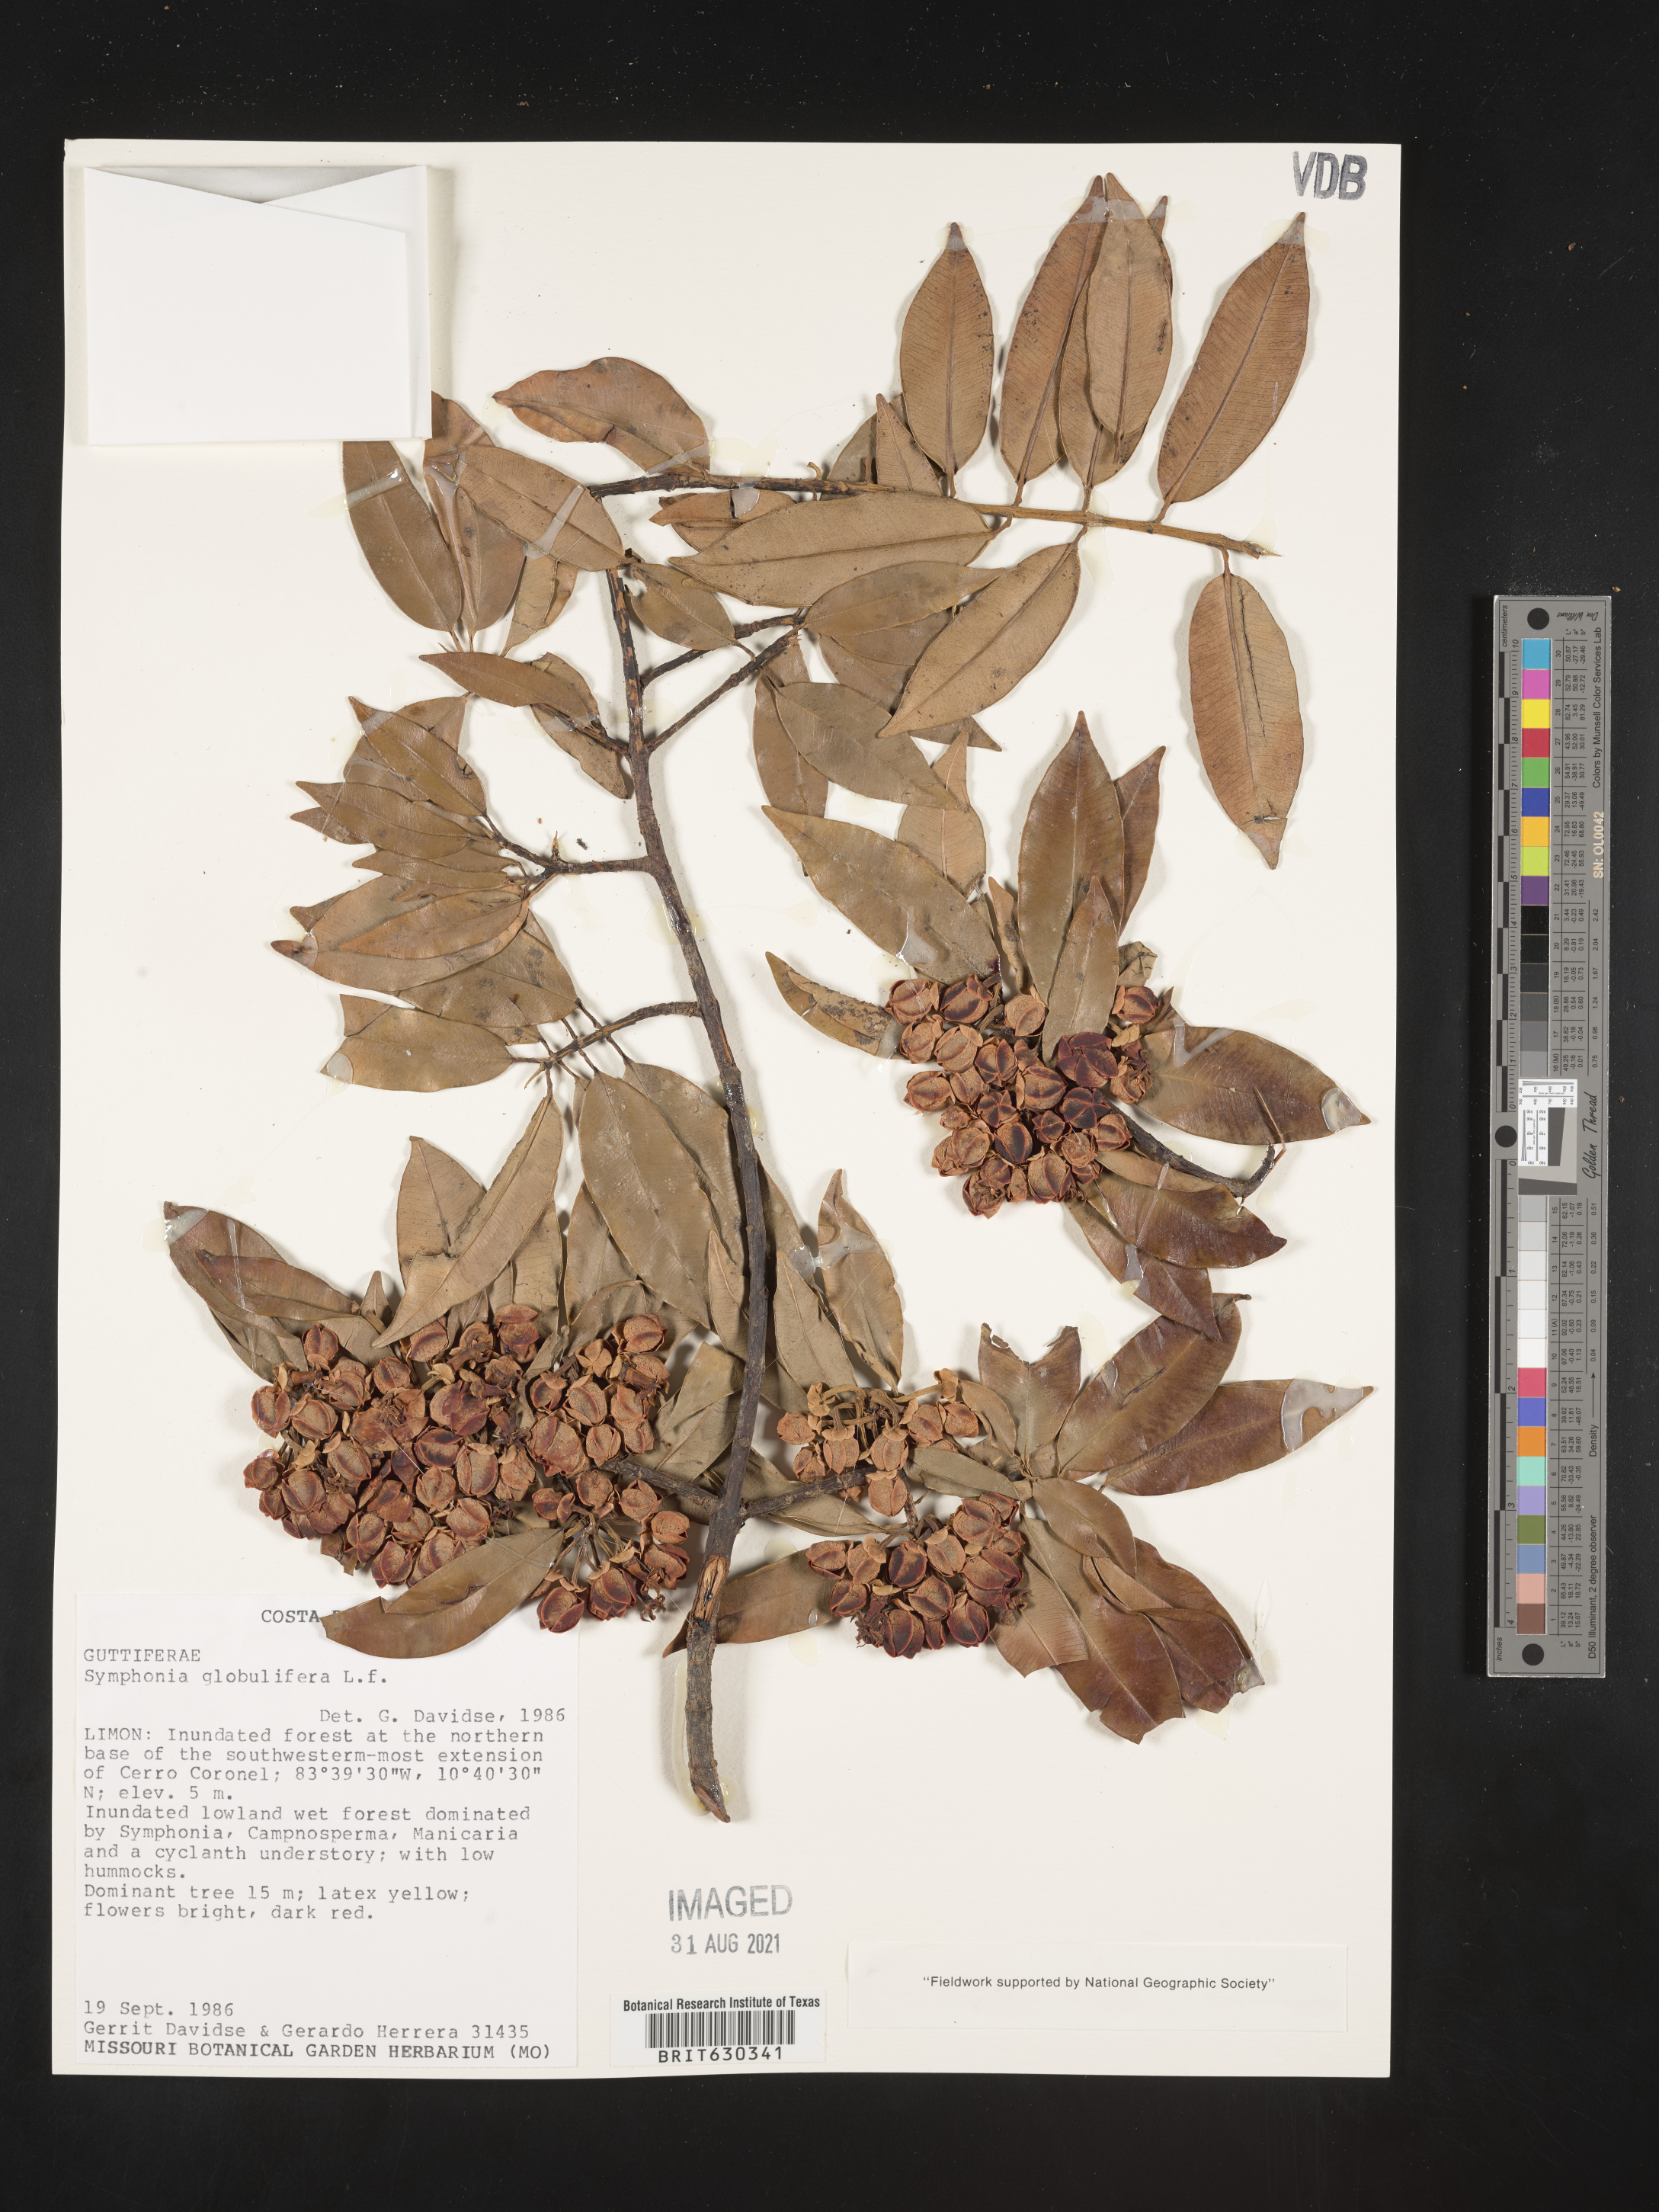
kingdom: Plantae
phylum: Tracheophyta
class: Magnoliopsida
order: Malpighiales
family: Clusiaceae
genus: Symphonia
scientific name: Symphonia globulifera
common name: Boarwood
